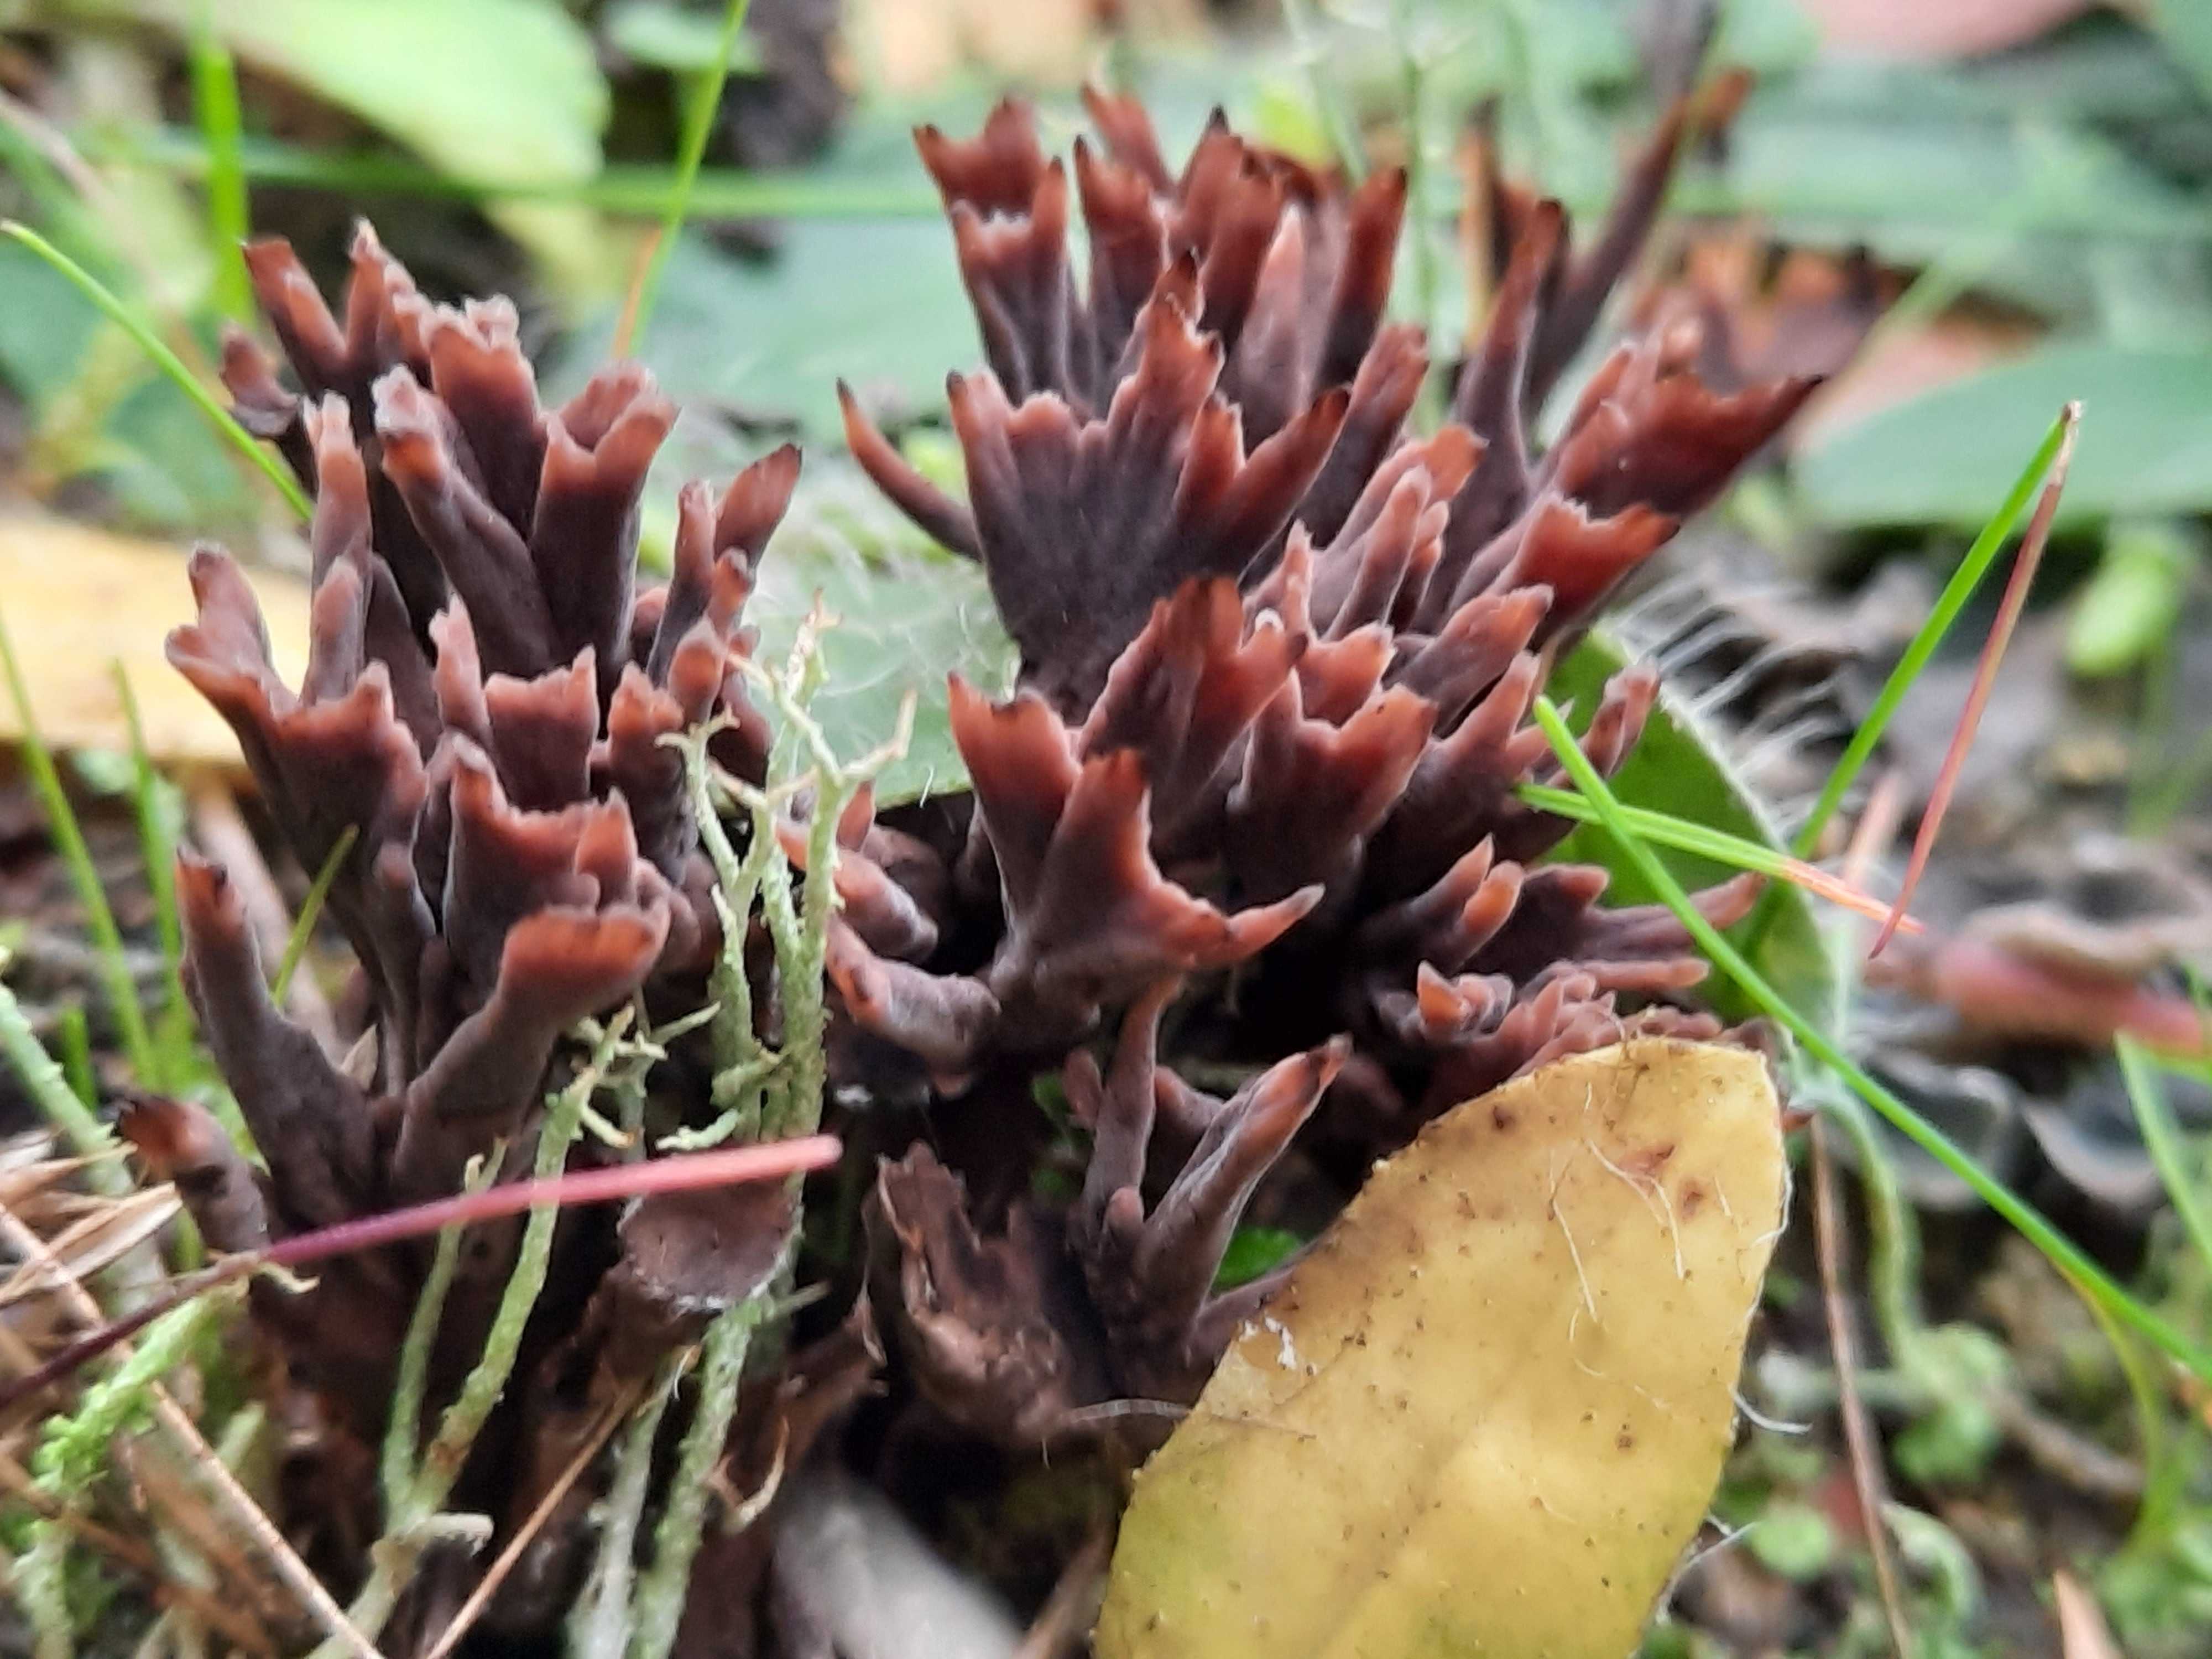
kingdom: Fungi
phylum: Basidiomycota
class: Agaricomycetes
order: Thelephorales
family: Thelephoraceae
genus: Thelephora
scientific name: Thelephora palmata
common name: grenet frynsesvamp
